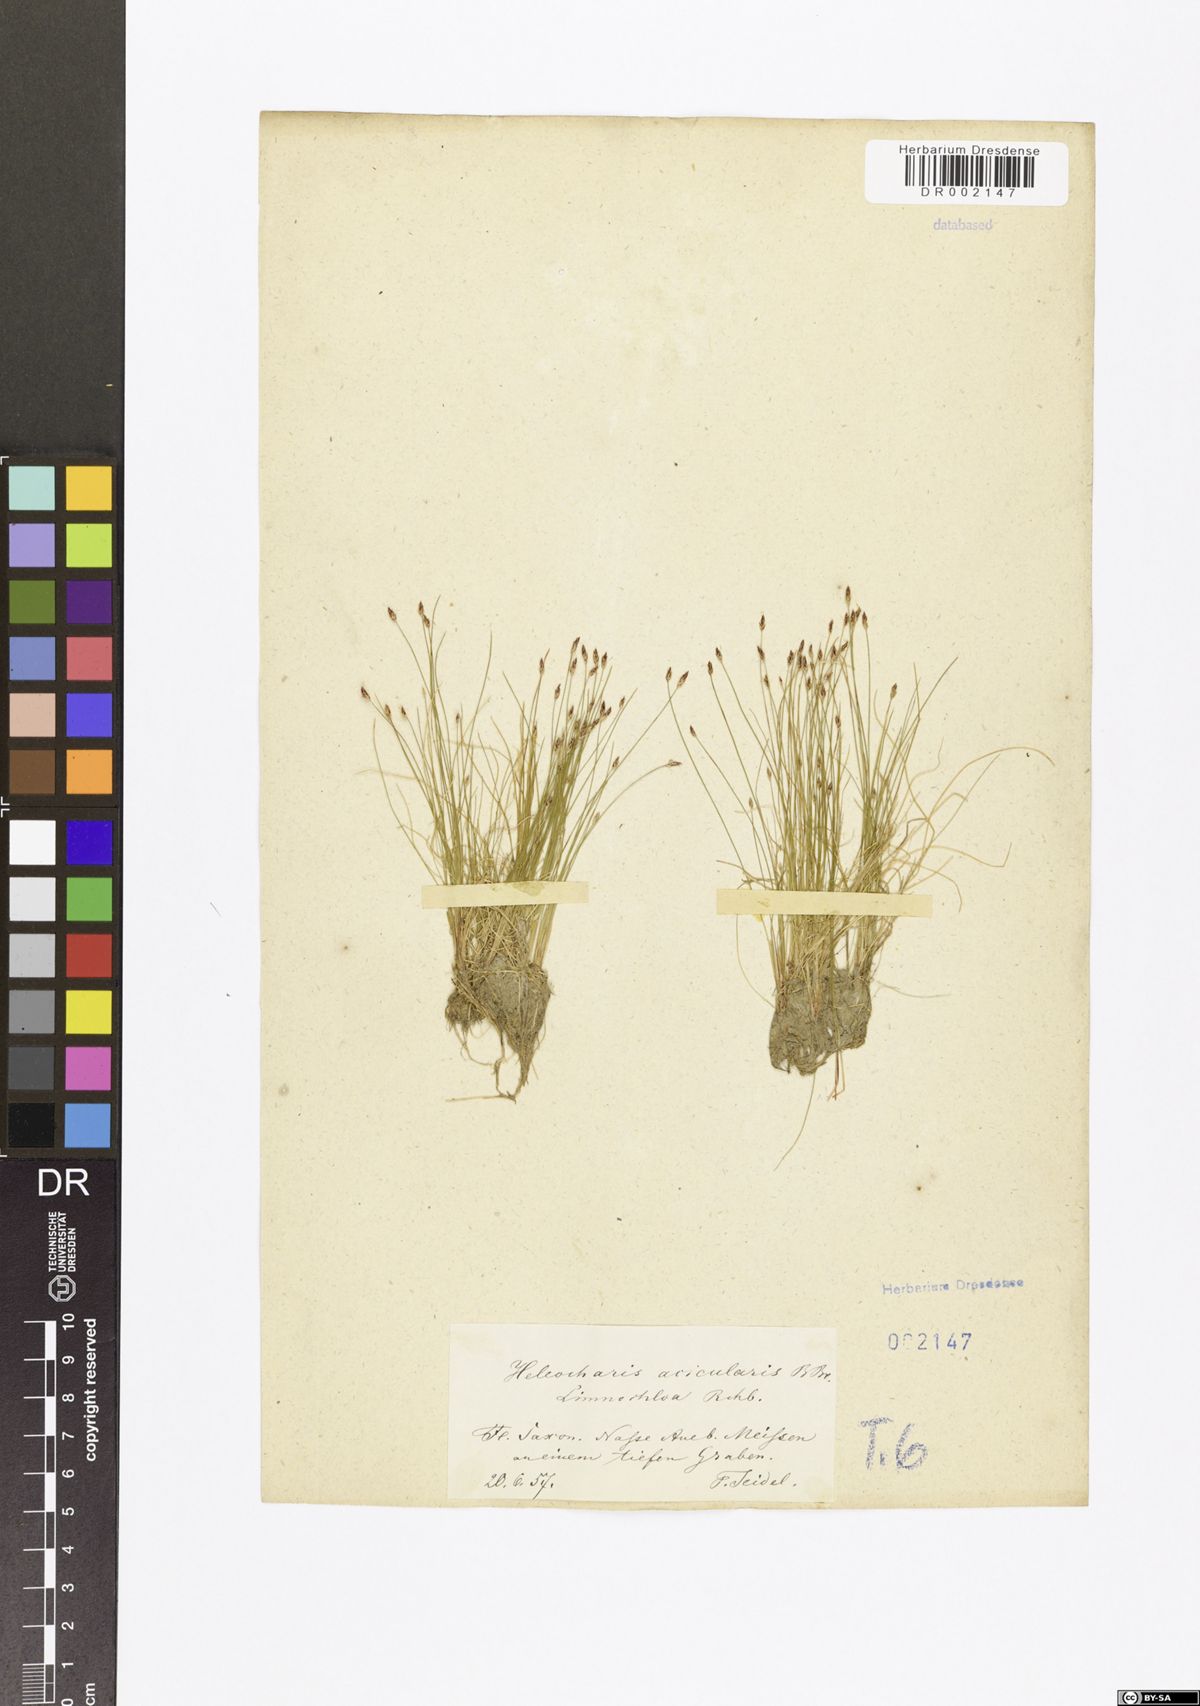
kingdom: Plantae
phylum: Tracheophyta
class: Liliopsida
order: Poales
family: Cyperaceae
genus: Eleocharis
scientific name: Eleocharis acicularis
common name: Needle spike-rush
